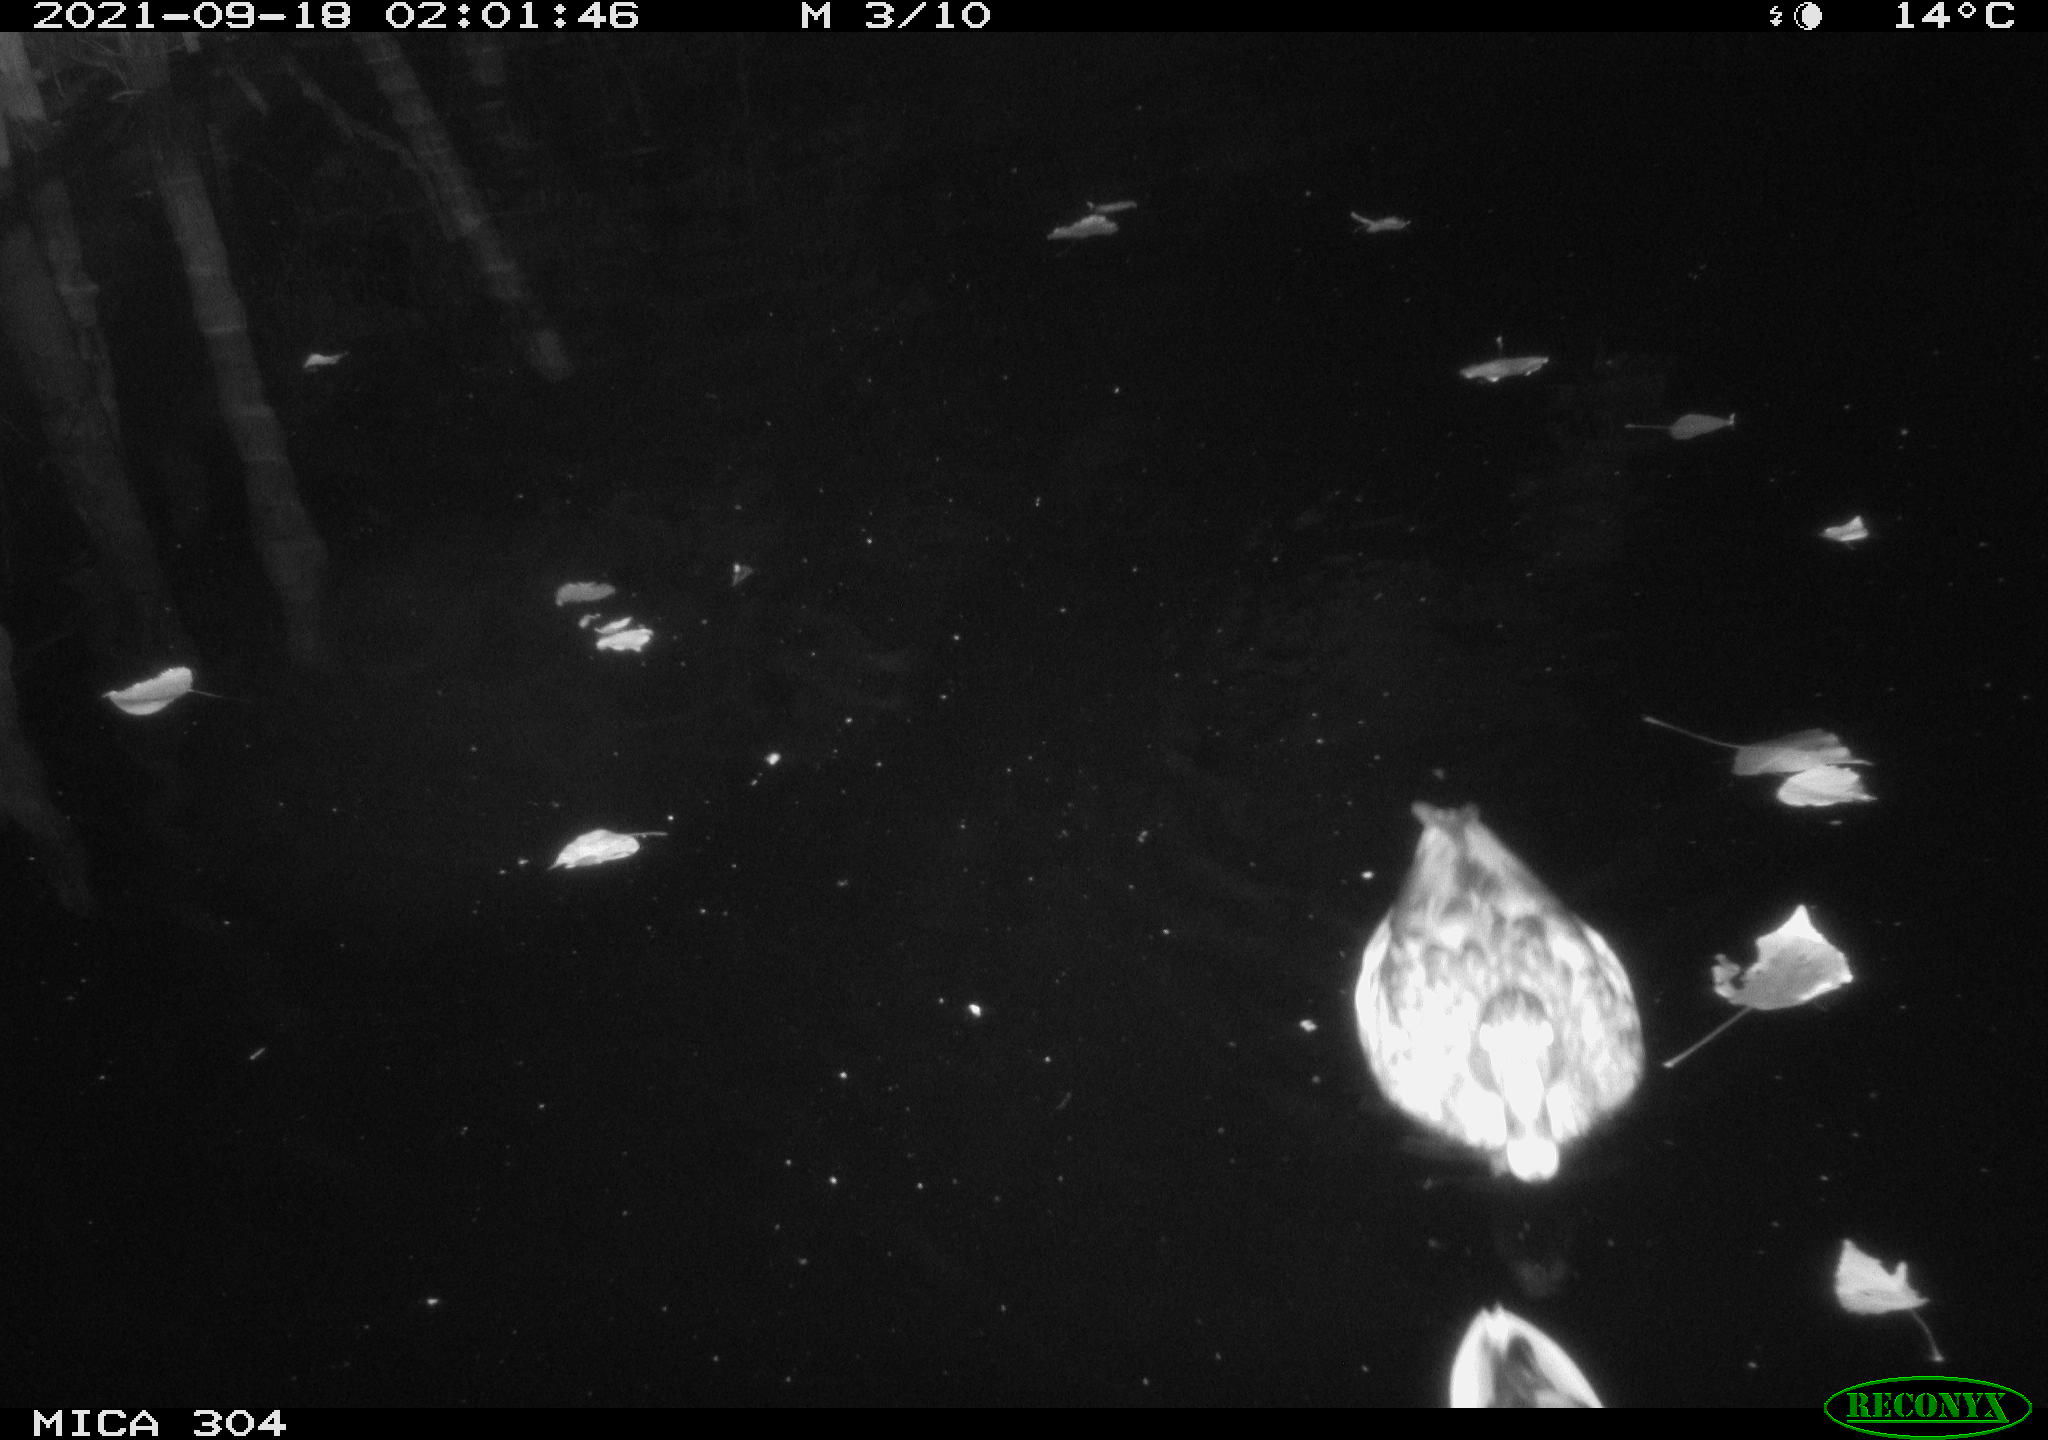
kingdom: Animalia
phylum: Chordata
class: Aves
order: Anseriformes
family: Anatidae
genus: Anas
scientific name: Anas platyrhynchos
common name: Mallard
